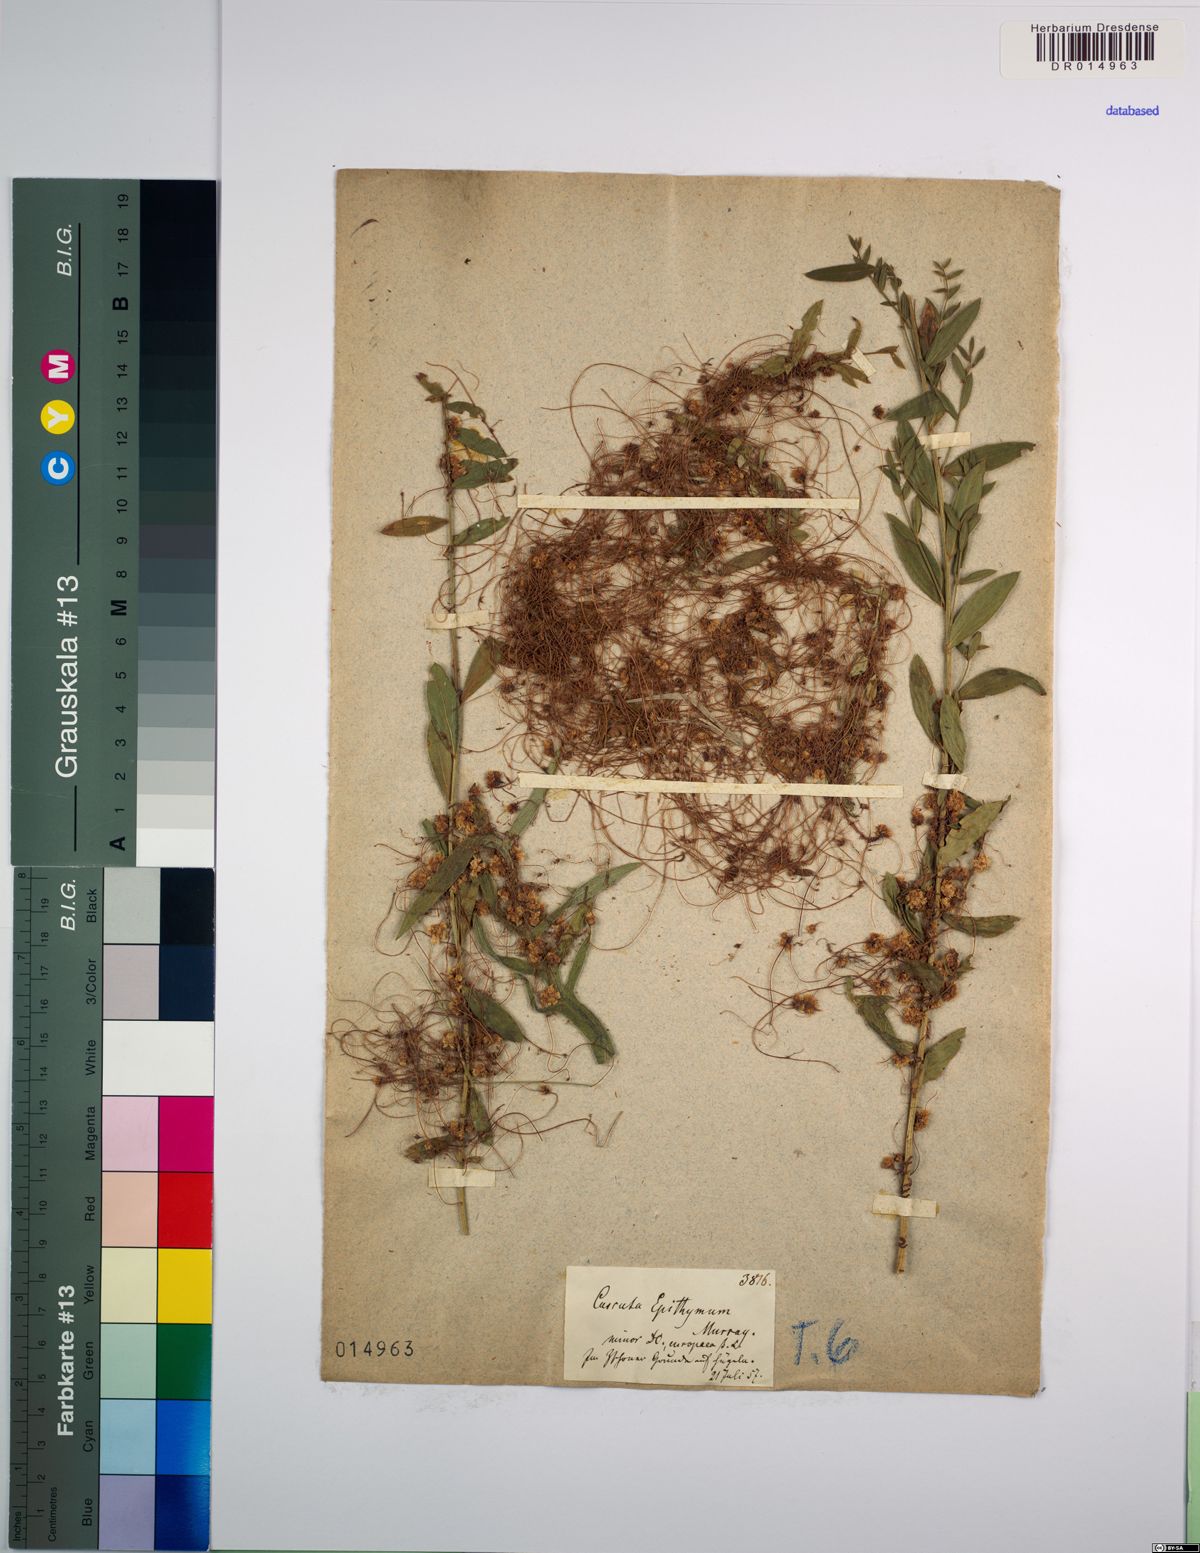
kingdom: Plantae
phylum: Tracheophyta
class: Magnoliopsida
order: Solanales
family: Convolvulaceae
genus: Cuscuta
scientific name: Cuscuta epithymum
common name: Clover dodder
